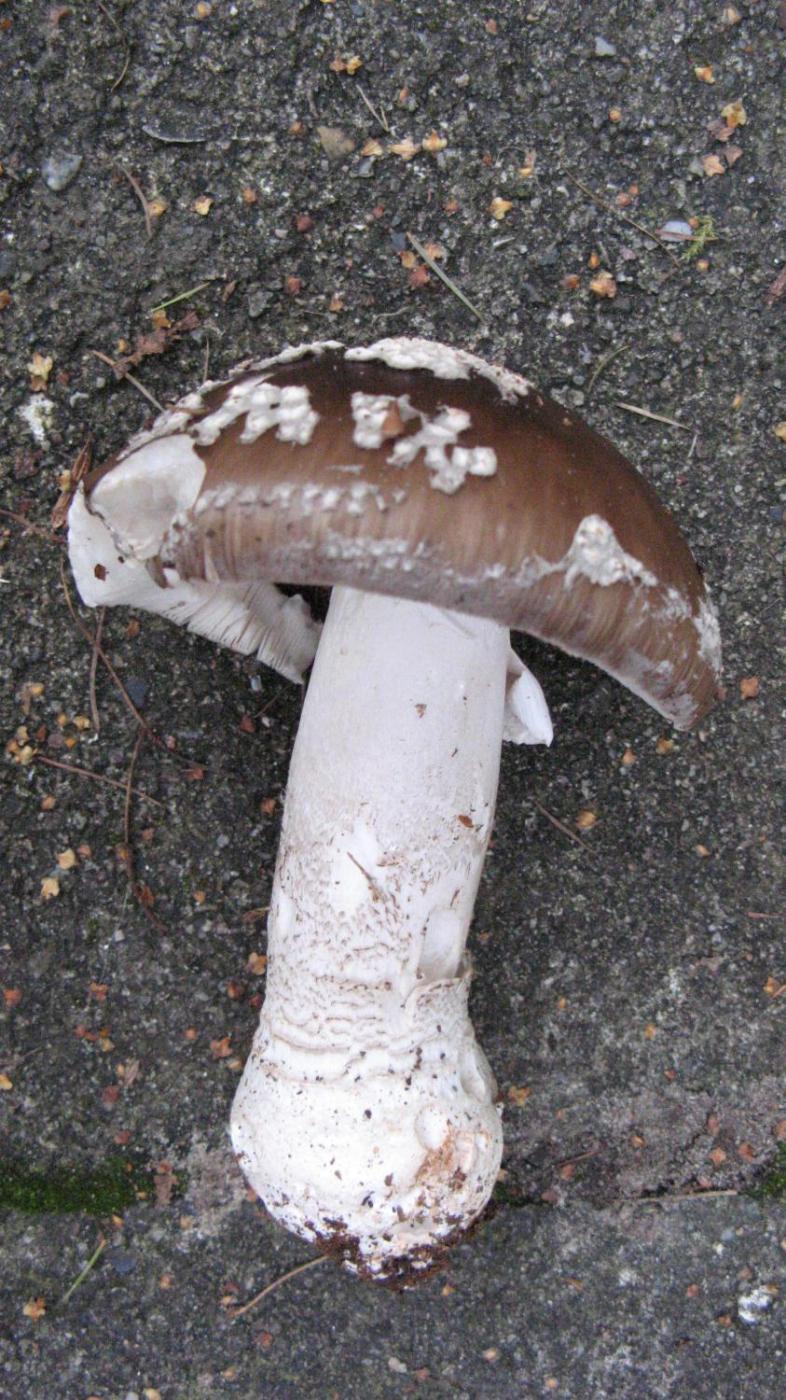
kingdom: Fungi
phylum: Basidiomycota
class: Agaricomycetes
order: Agaricales
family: Amanitaceae
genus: Amanita
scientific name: Amanita
